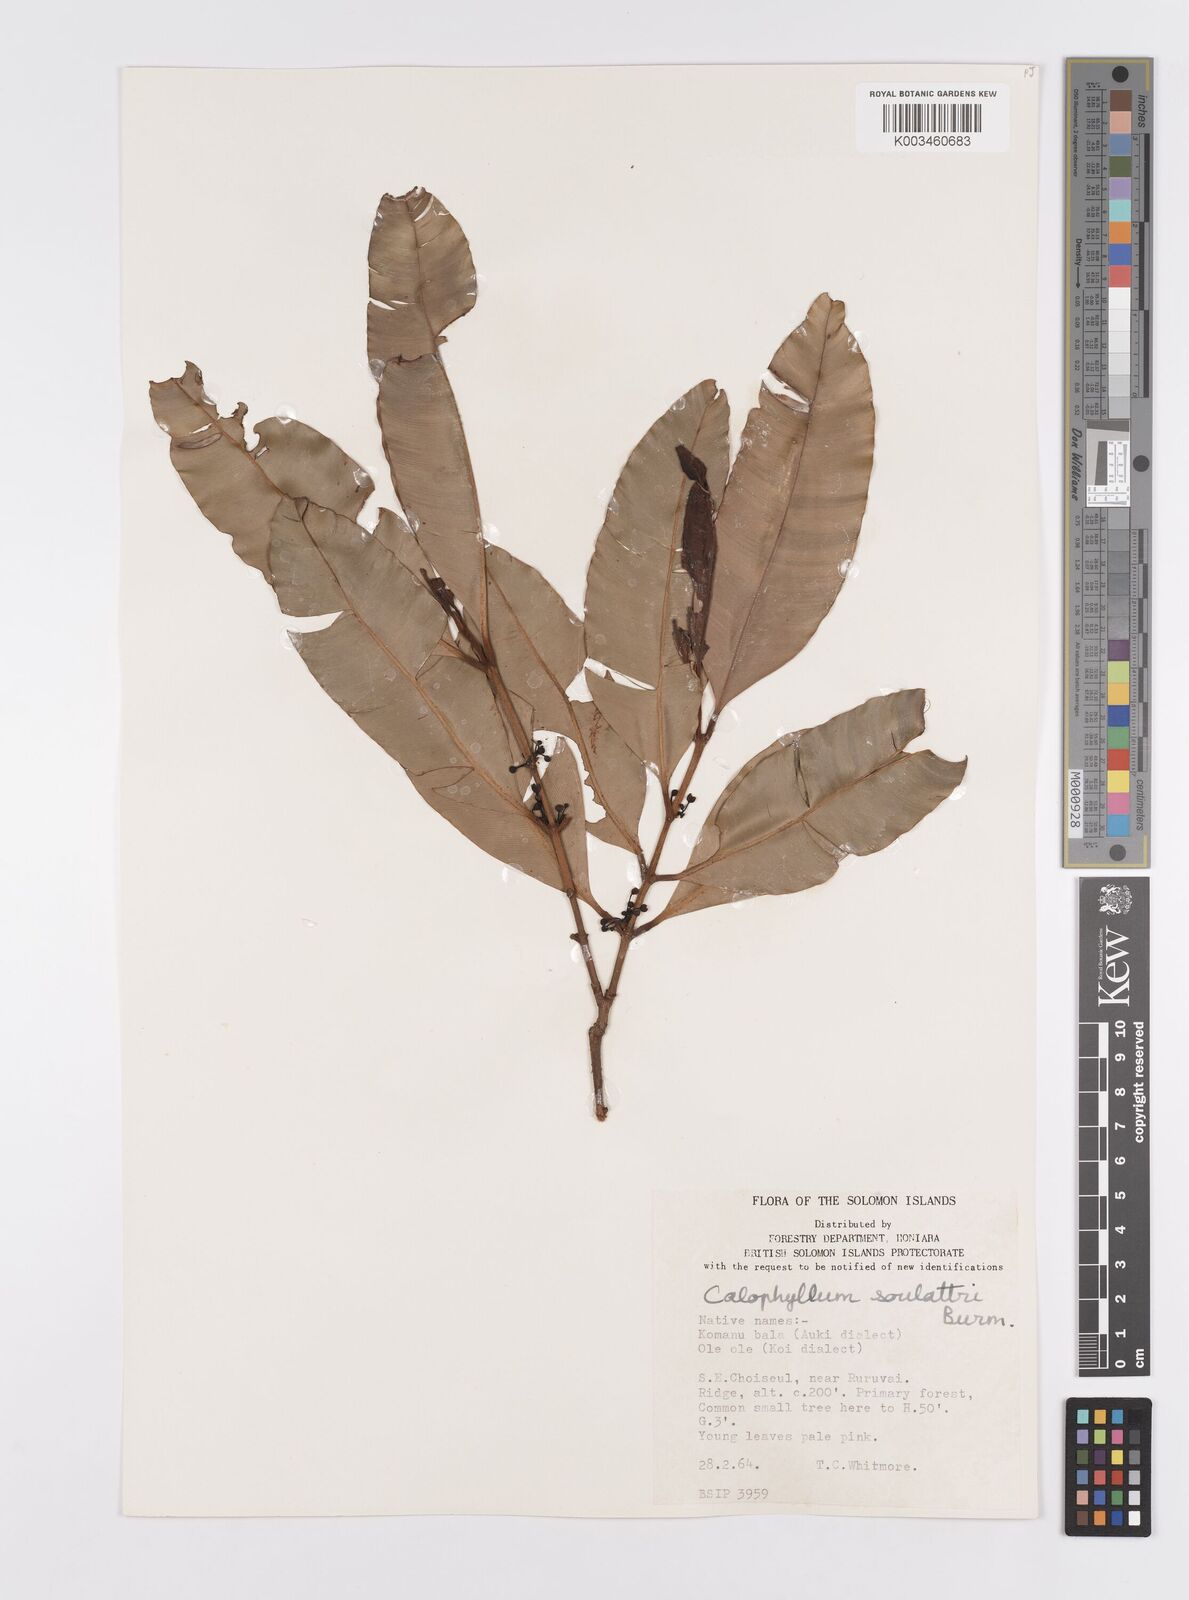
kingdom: Plantae
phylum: Tracheophyta
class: Magnoliopsida
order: Malpighiales
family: Calophyllaceae
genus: Calophyllum
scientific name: Calophyllum soulattri
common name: Bitangoor boonot
